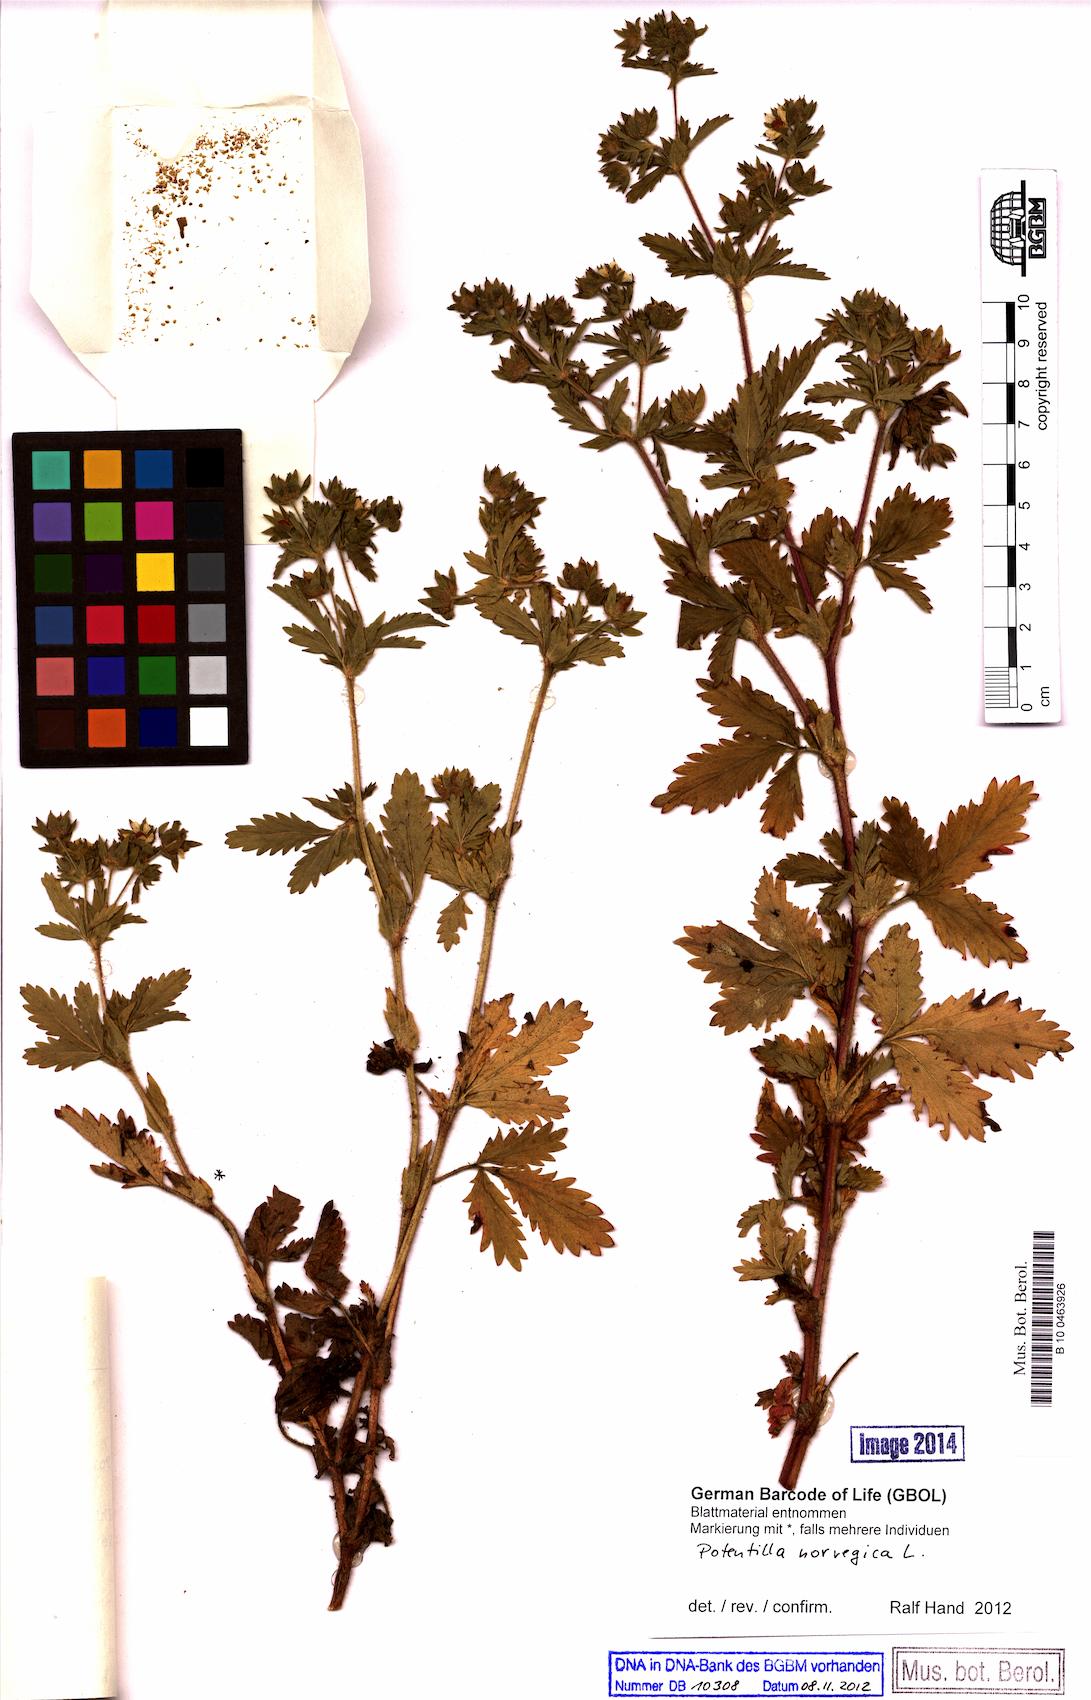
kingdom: Plantae
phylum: Tracheophyta
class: Magnoliopsida
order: Rosales
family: Rosaceae
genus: Potentilla
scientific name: Potentilla norvegica
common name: Ternate-leaved cinquefoil
